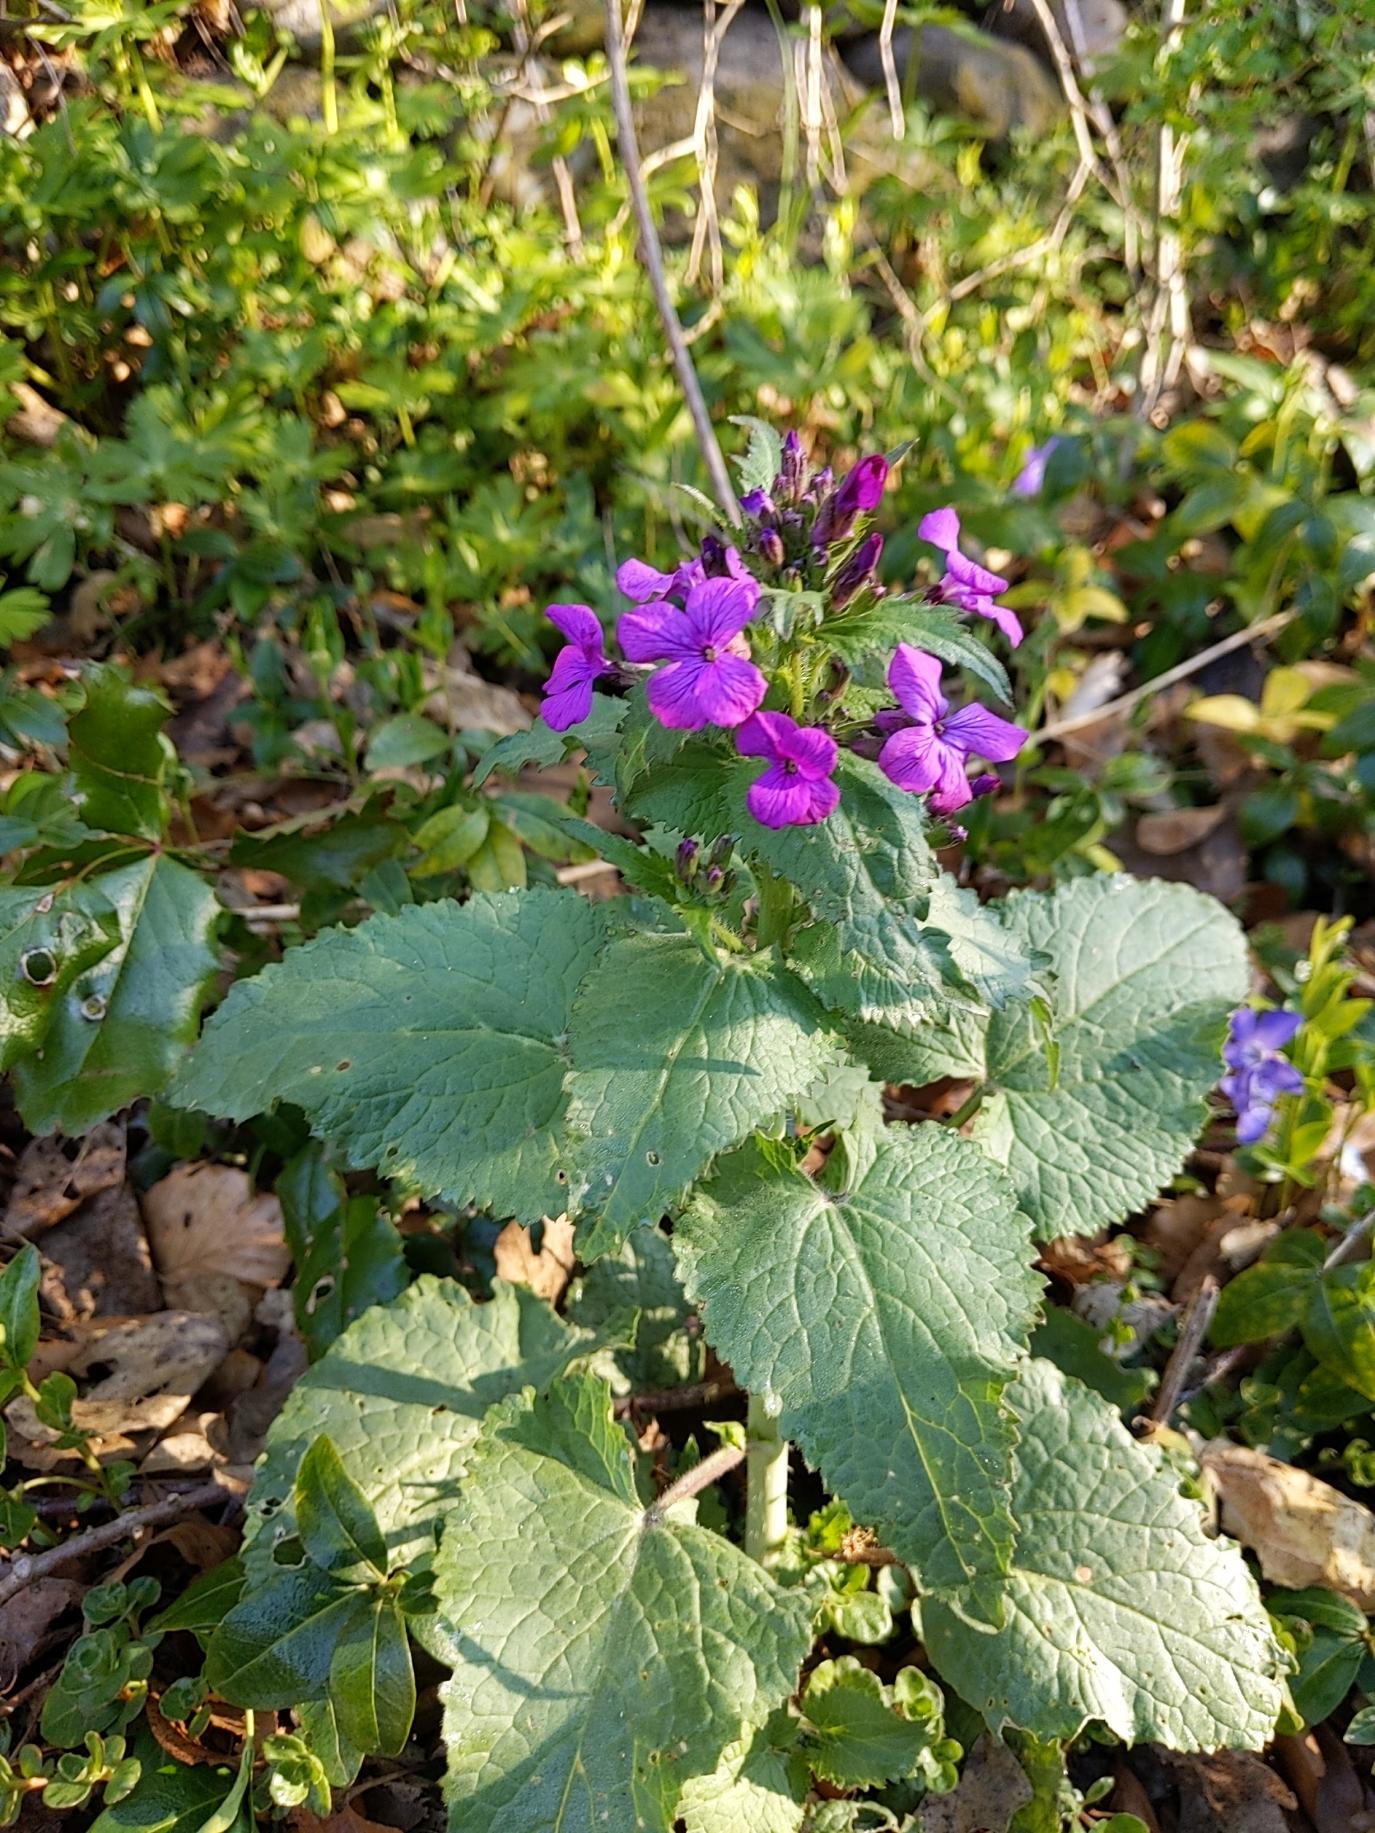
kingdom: Plantae
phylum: Tracheophyta
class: Magnoliopsida
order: Brassicales
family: Brassicaceae
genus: Lunaria
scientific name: Lunaria annua
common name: Judaspenge
